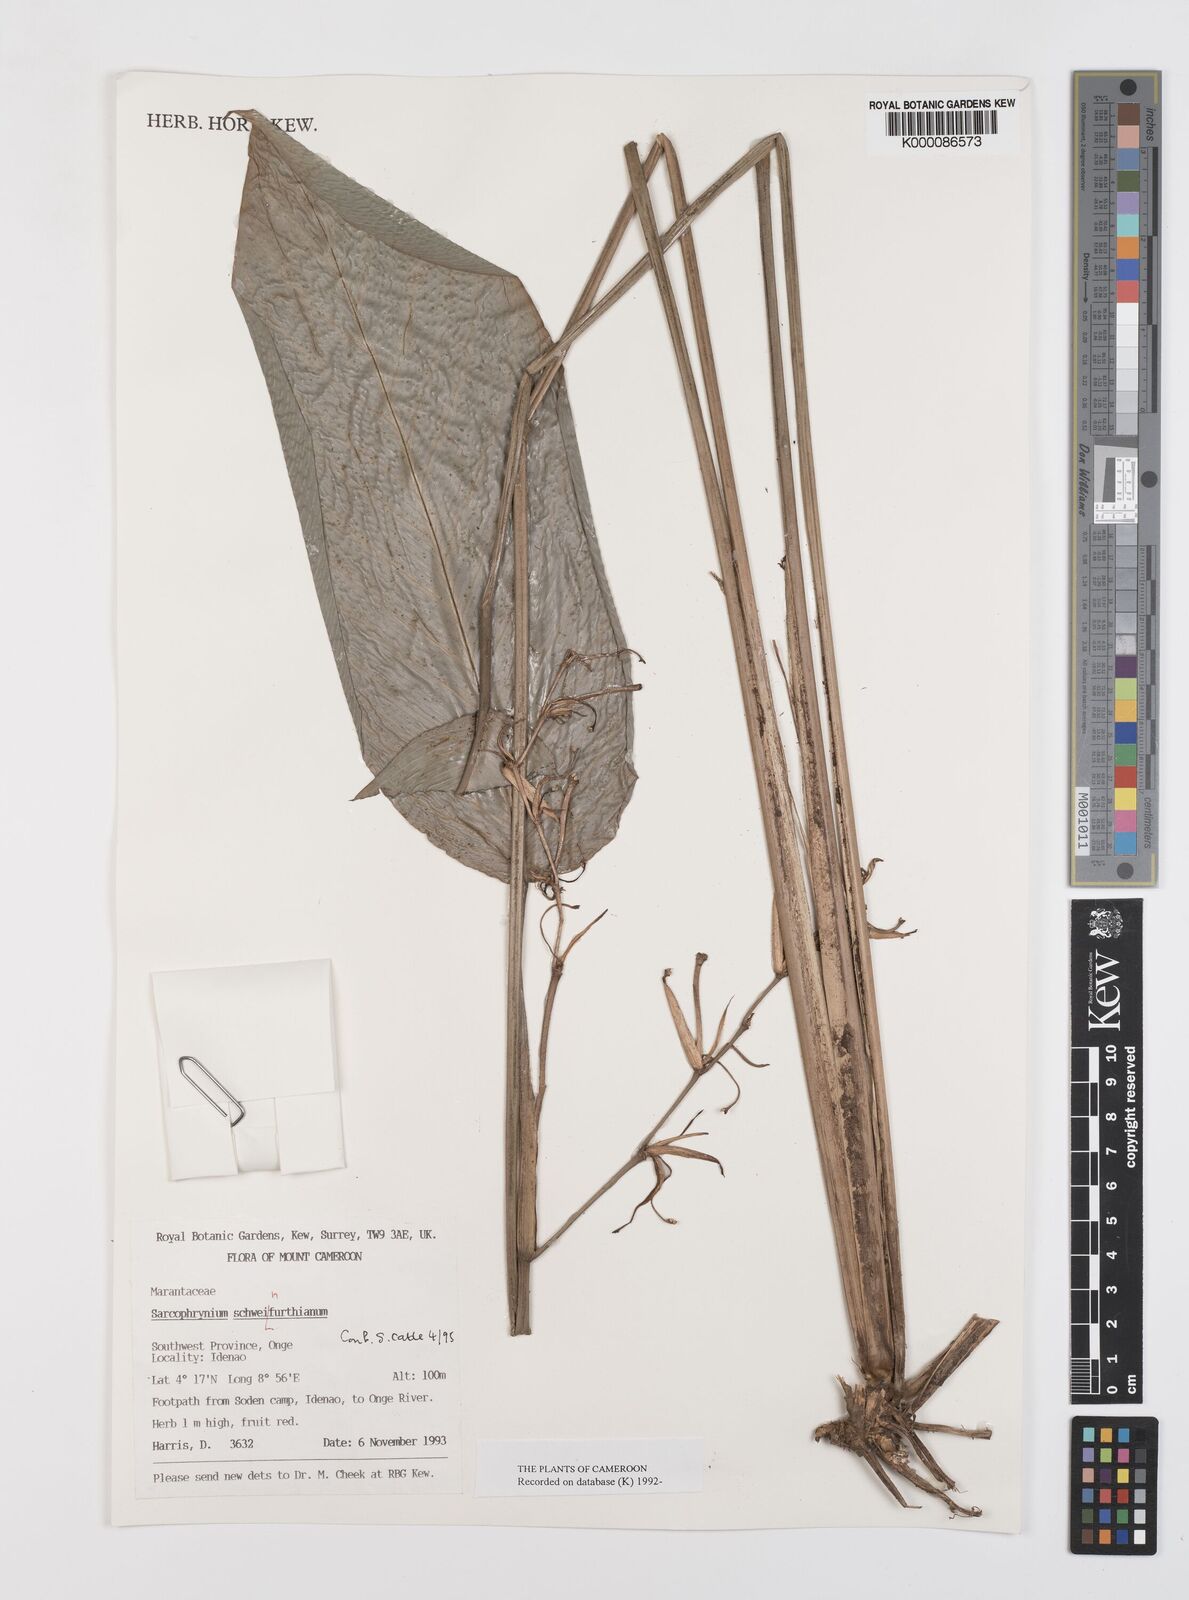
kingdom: Plantae
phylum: Tracheophyta
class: Liliopsida
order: Zingiberales
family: Marantaceae
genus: Sarcophrynium
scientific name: Sarcophrynium schweinfurthianum
